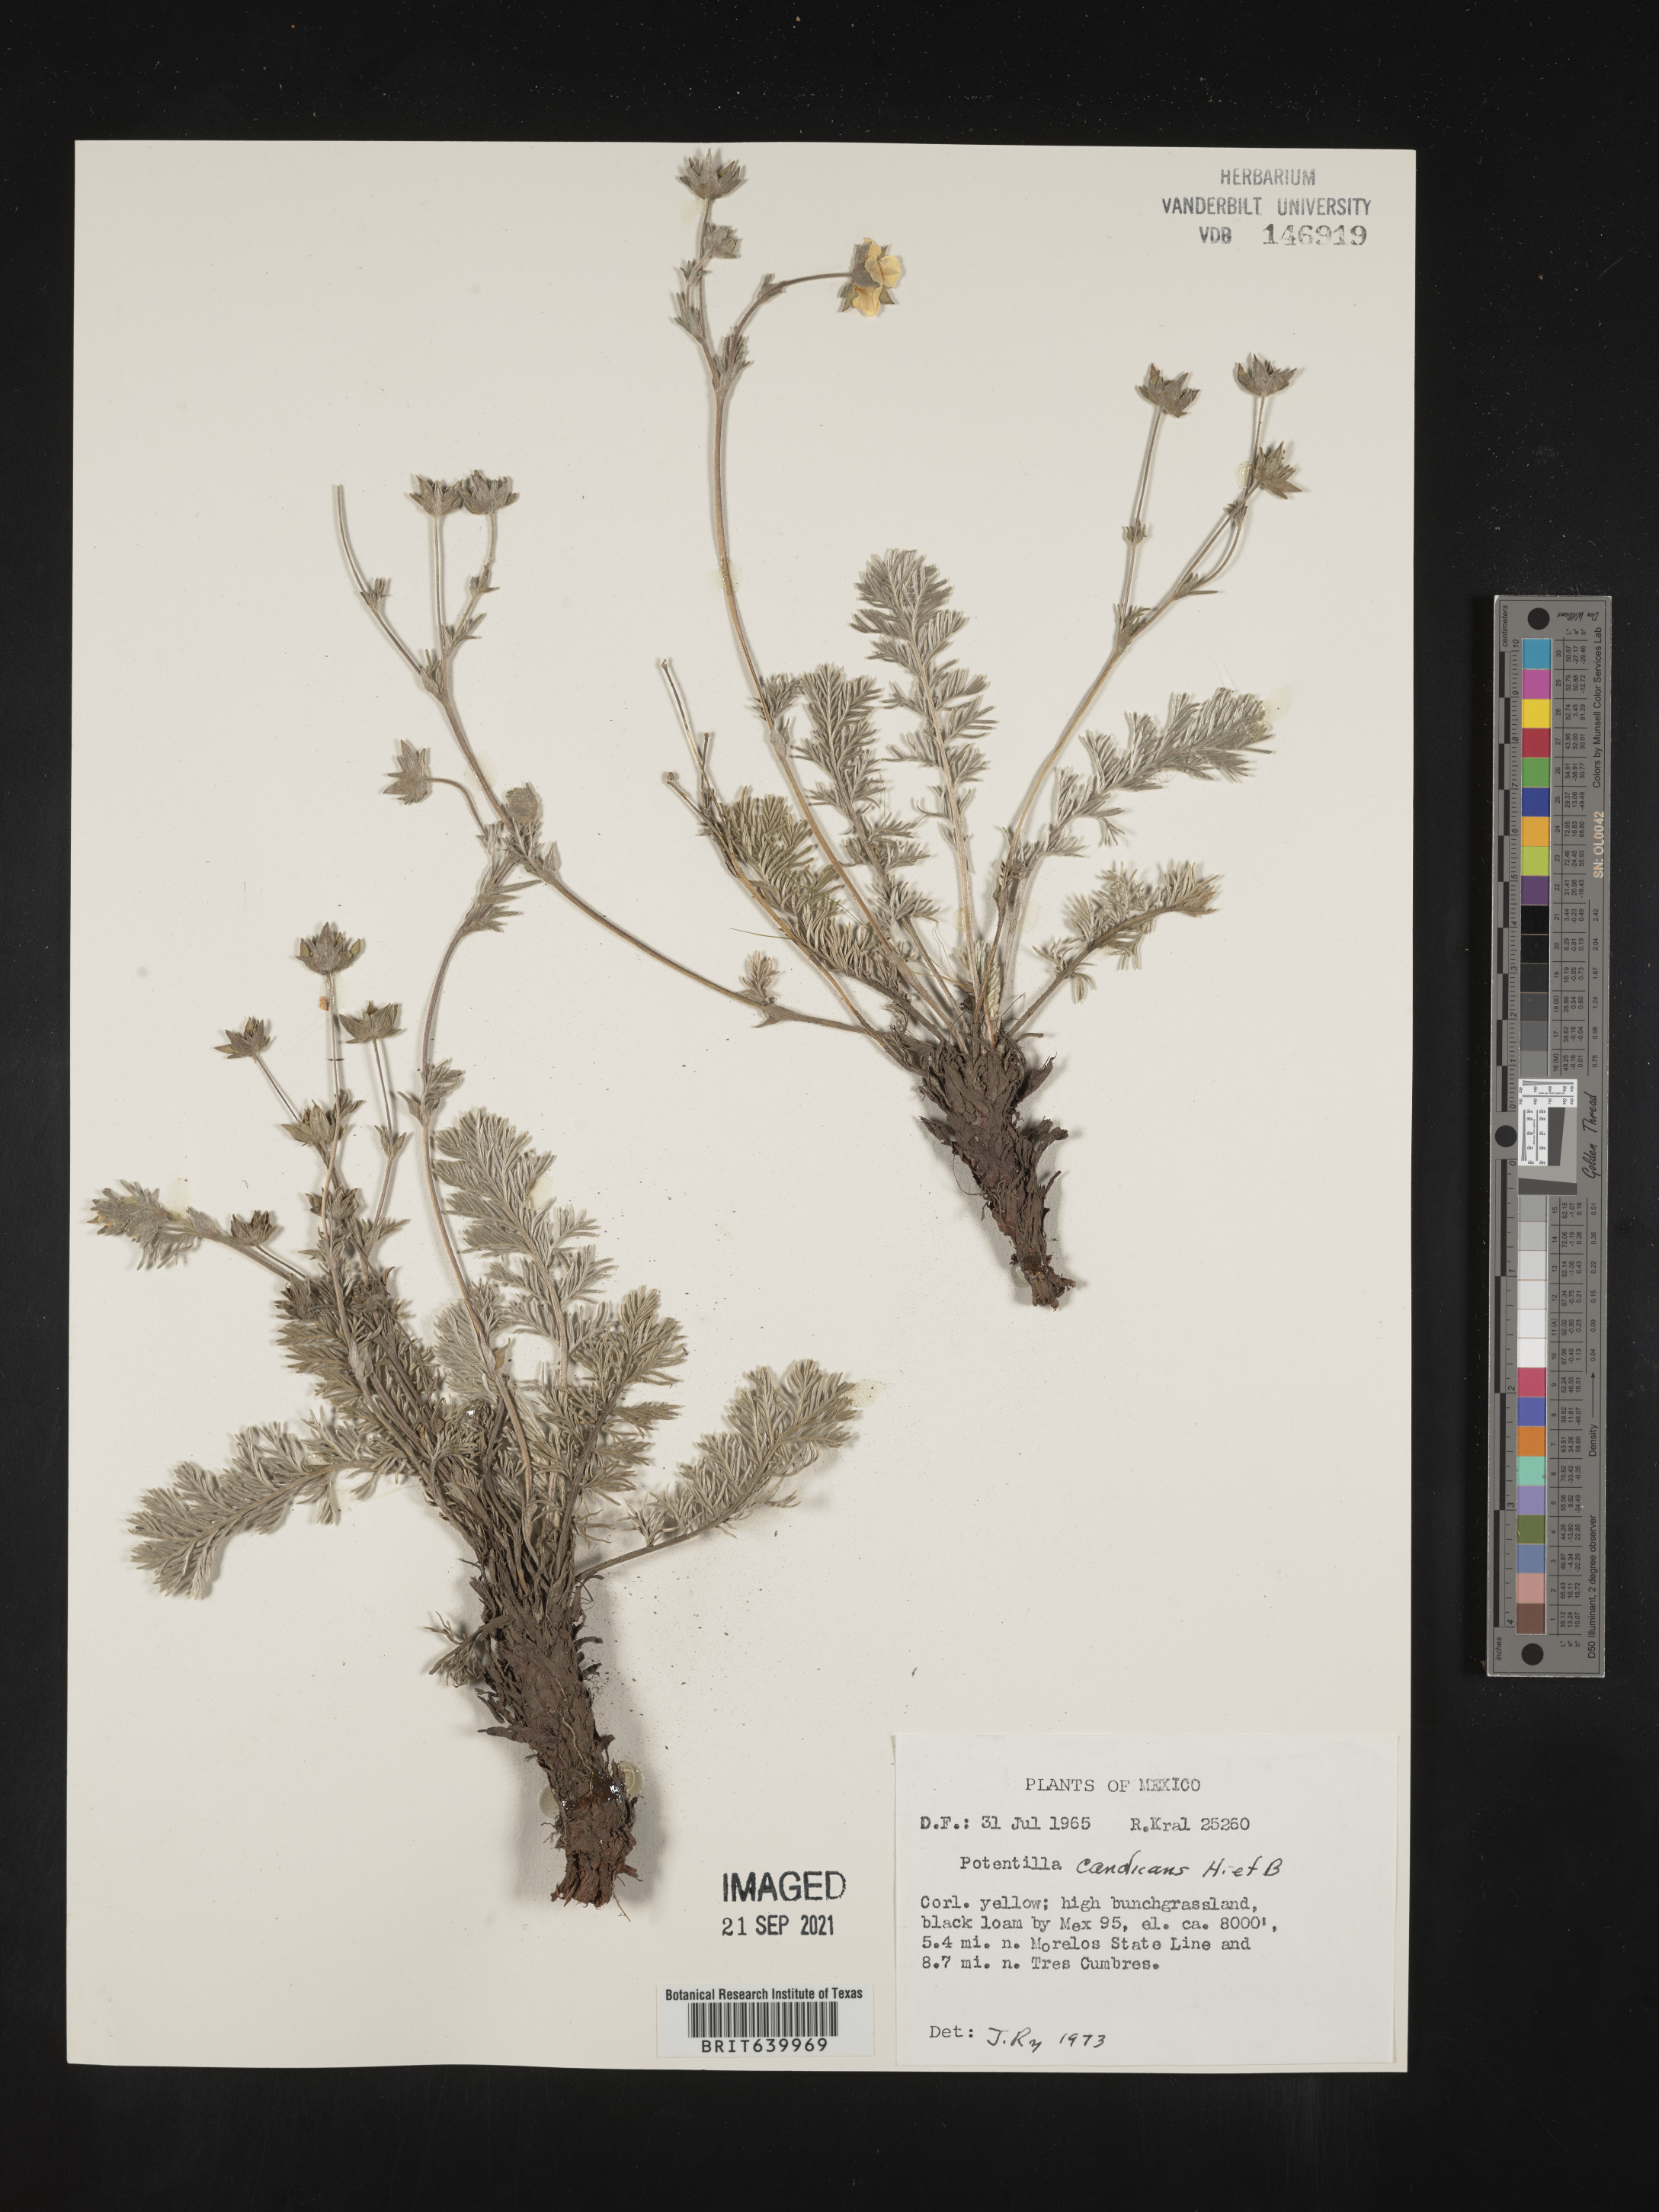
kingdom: Plantae
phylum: Tracheophyta
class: Magnoliopsida
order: Rosales
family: Rosaceae
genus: Potentilla
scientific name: Potentilla
